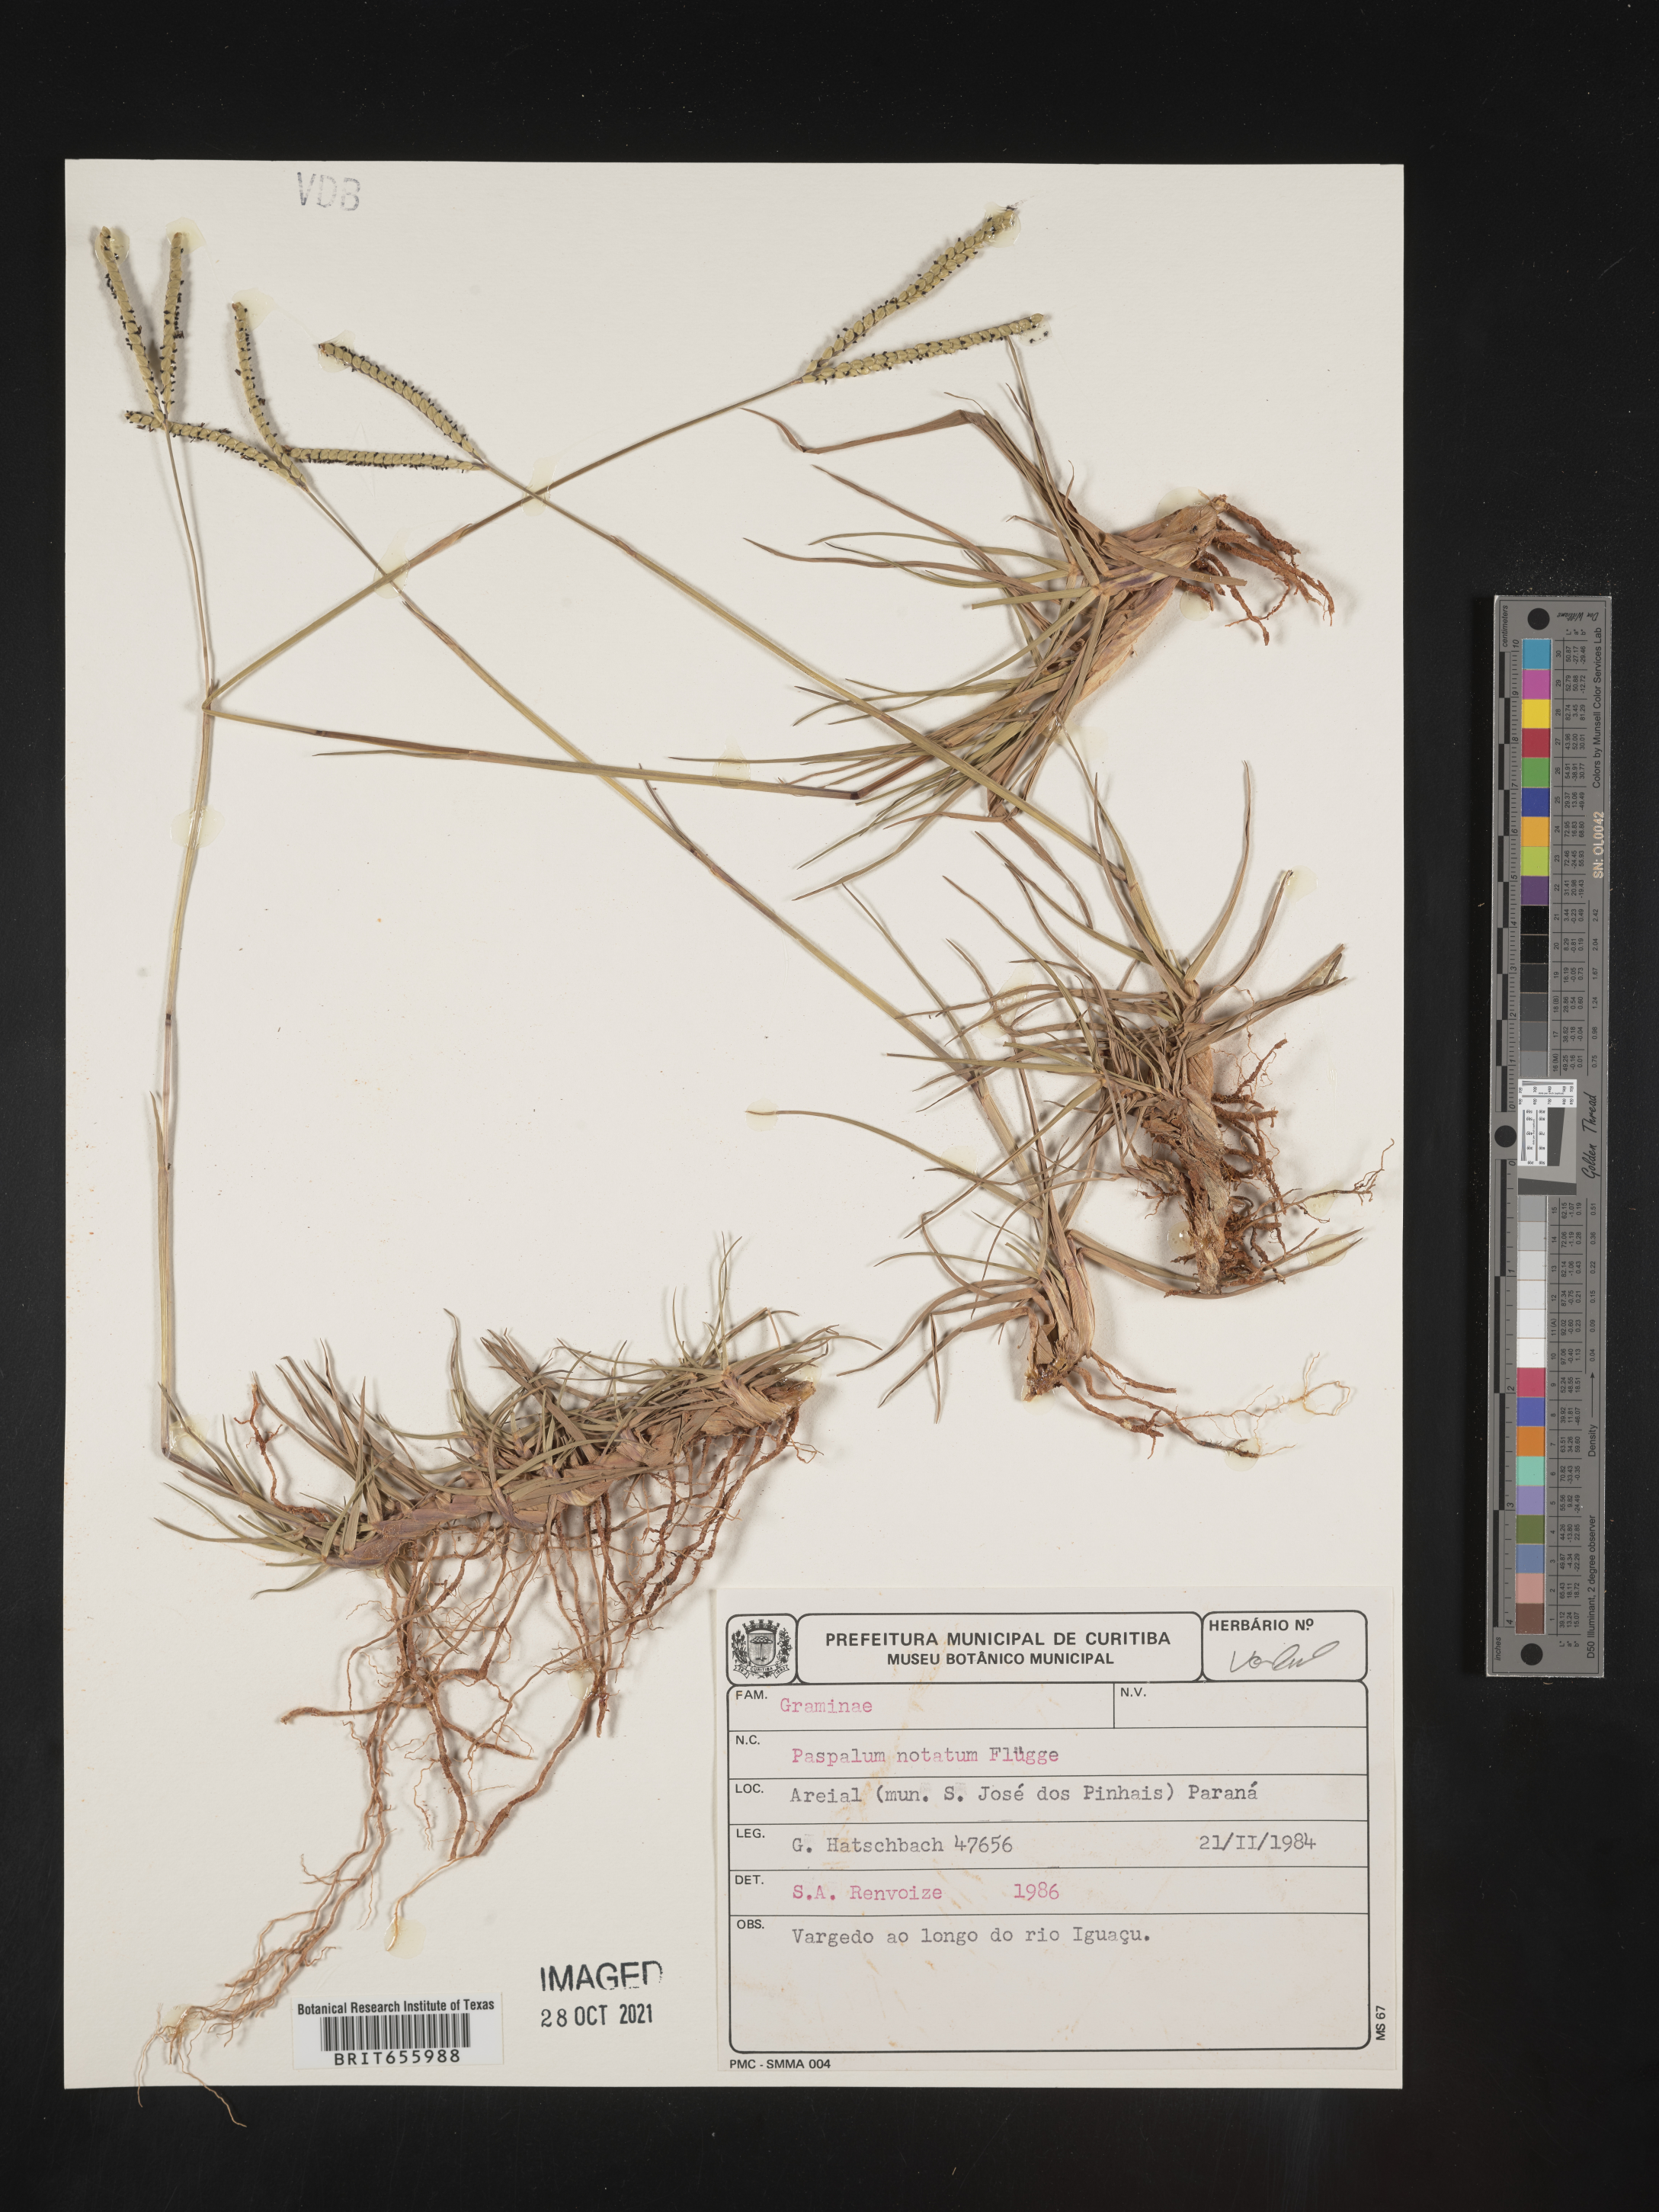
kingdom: Plantae
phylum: Tracheophyta
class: Liliopsida
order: Poales
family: Poaceae
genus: Paspalum
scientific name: Paspalum
